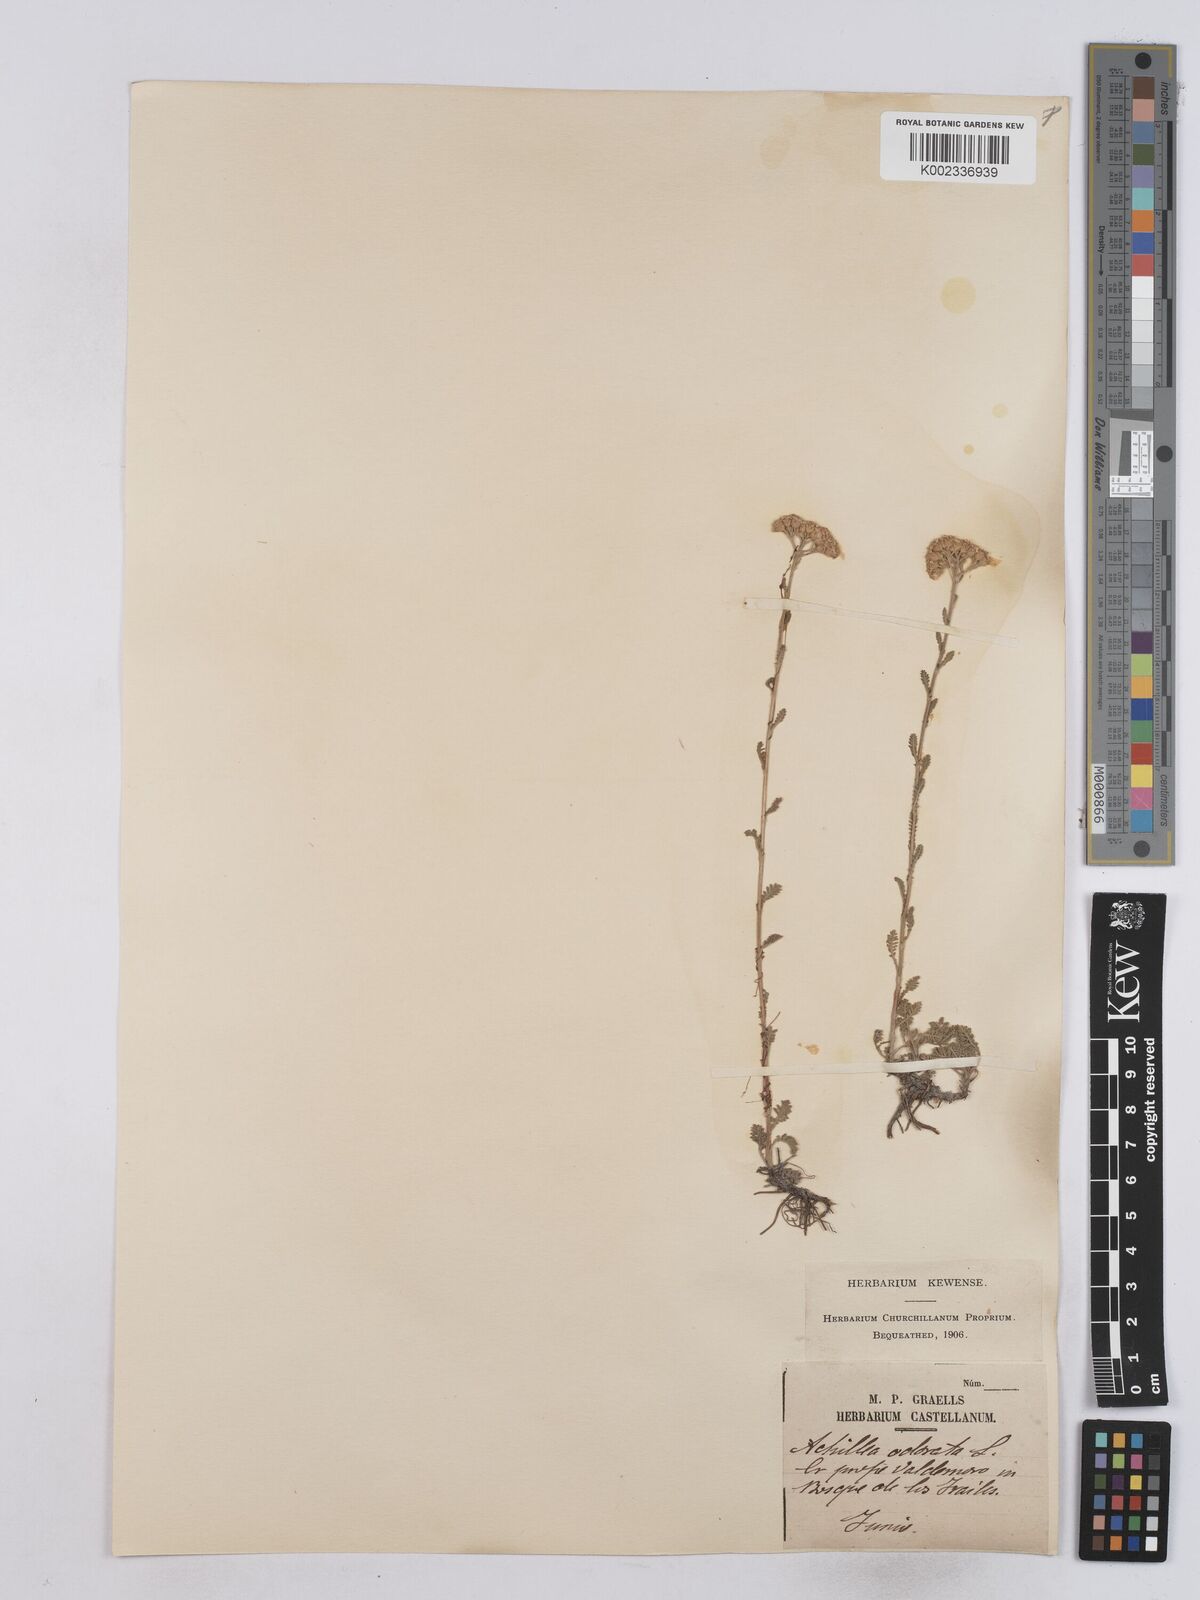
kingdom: Plantae
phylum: Tracheophyta
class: Magnoliopsida
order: Asterales
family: Asteraceae
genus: Achillea
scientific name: Achillea odorata
